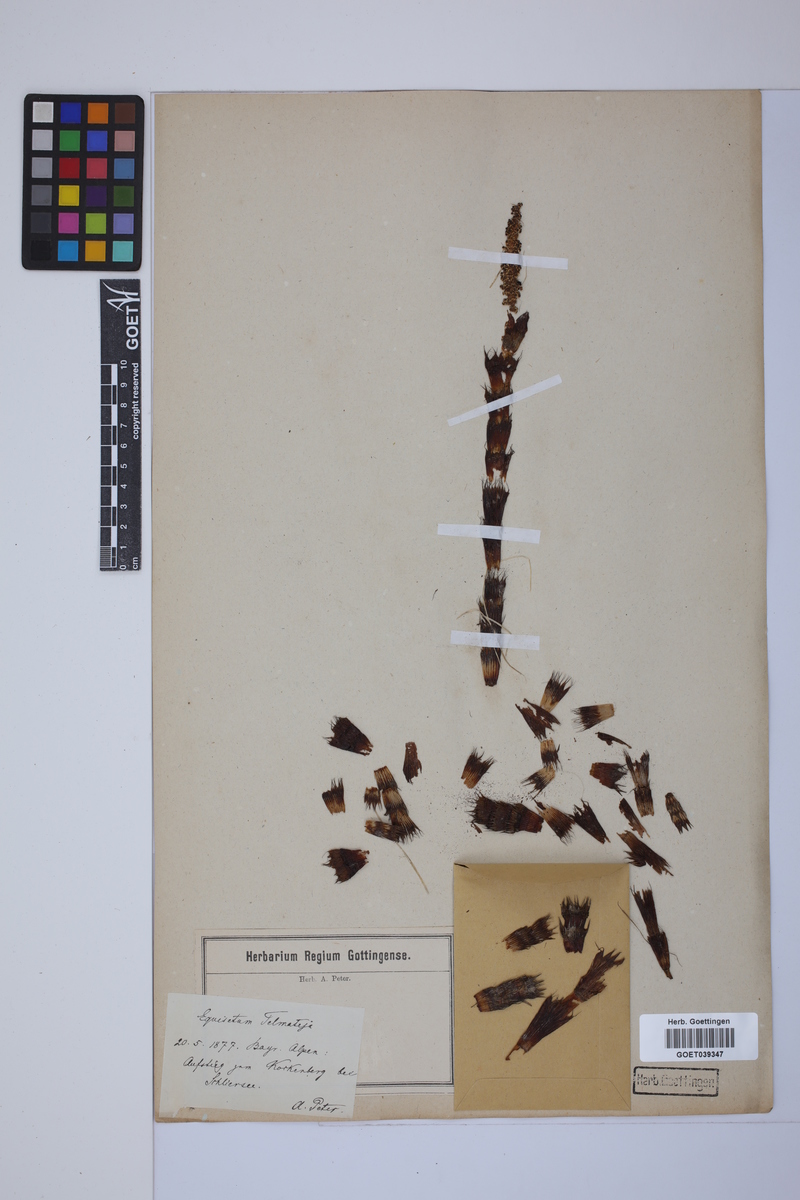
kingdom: Plantae
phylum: Tracheophyta
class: Polypodiopsida
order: Equisetales
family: Equisetaceae
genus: Equisetum
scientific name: Equisetum telmateia
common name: Great horsetail
